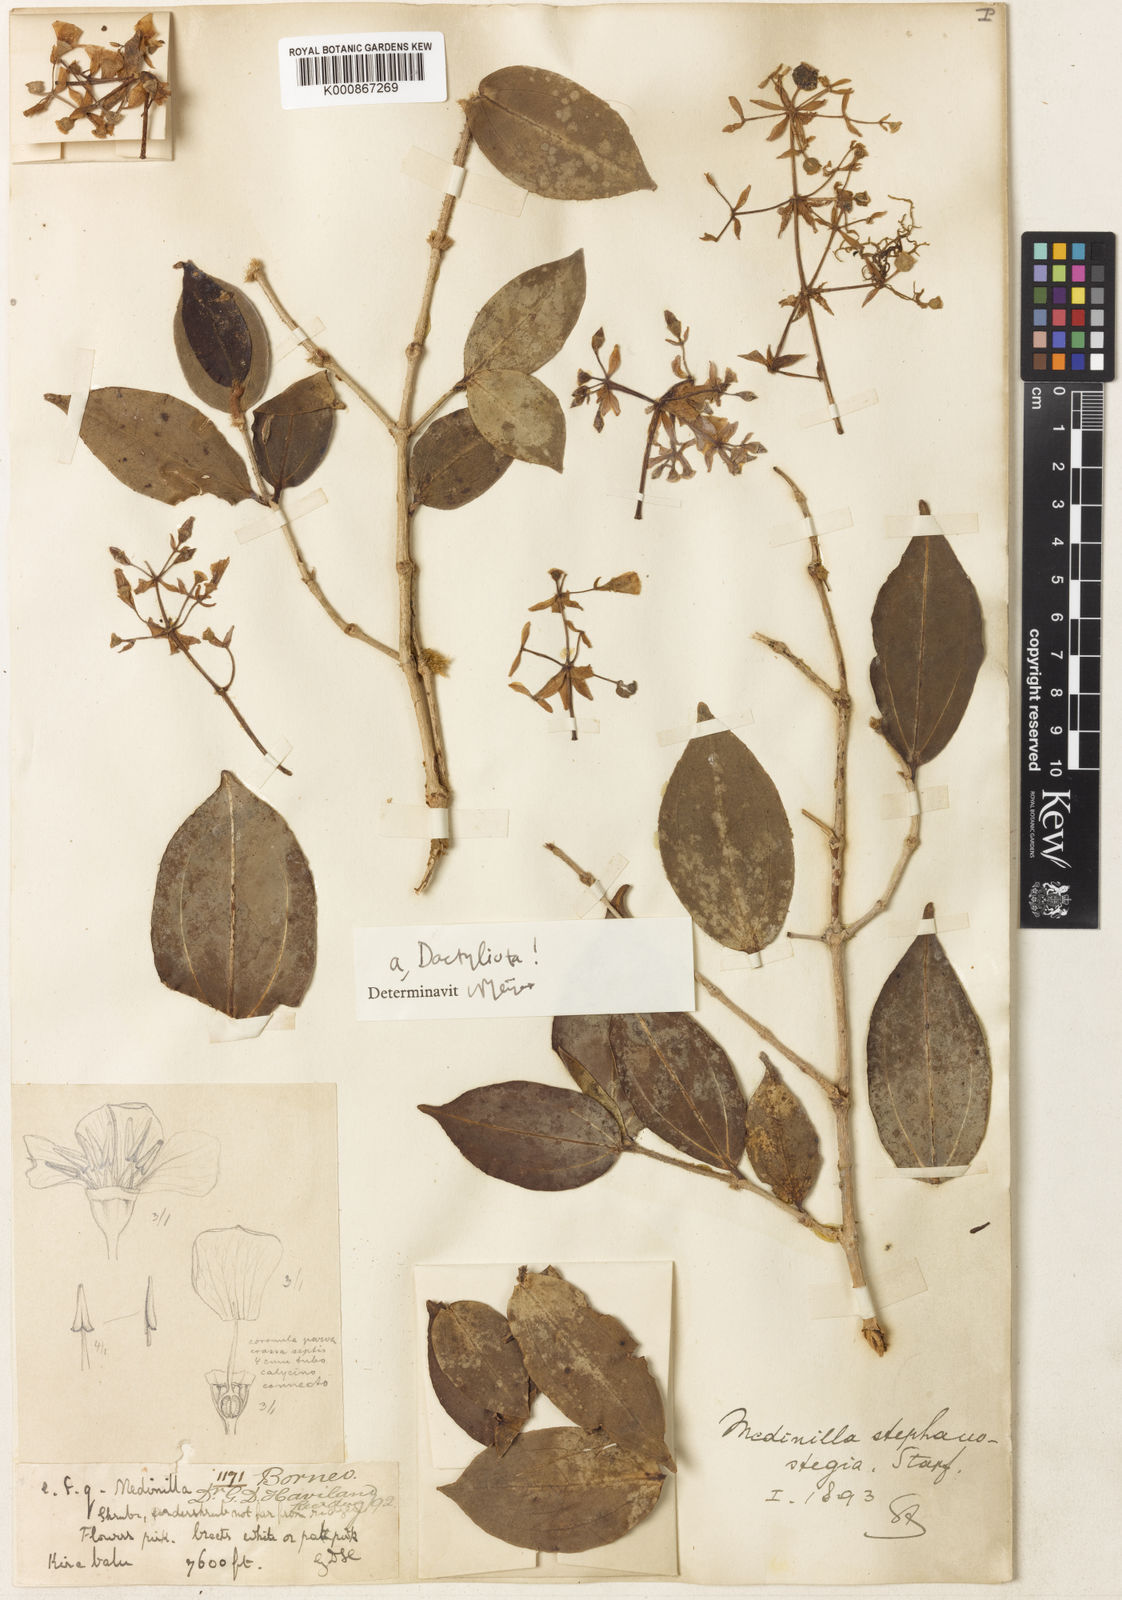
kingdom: Plantae
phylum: Tracheophyta
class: Magnoliopsida
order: Myrtales
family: Melastomataceae
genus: Medinilla
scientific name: Medinilla stephanostegia
